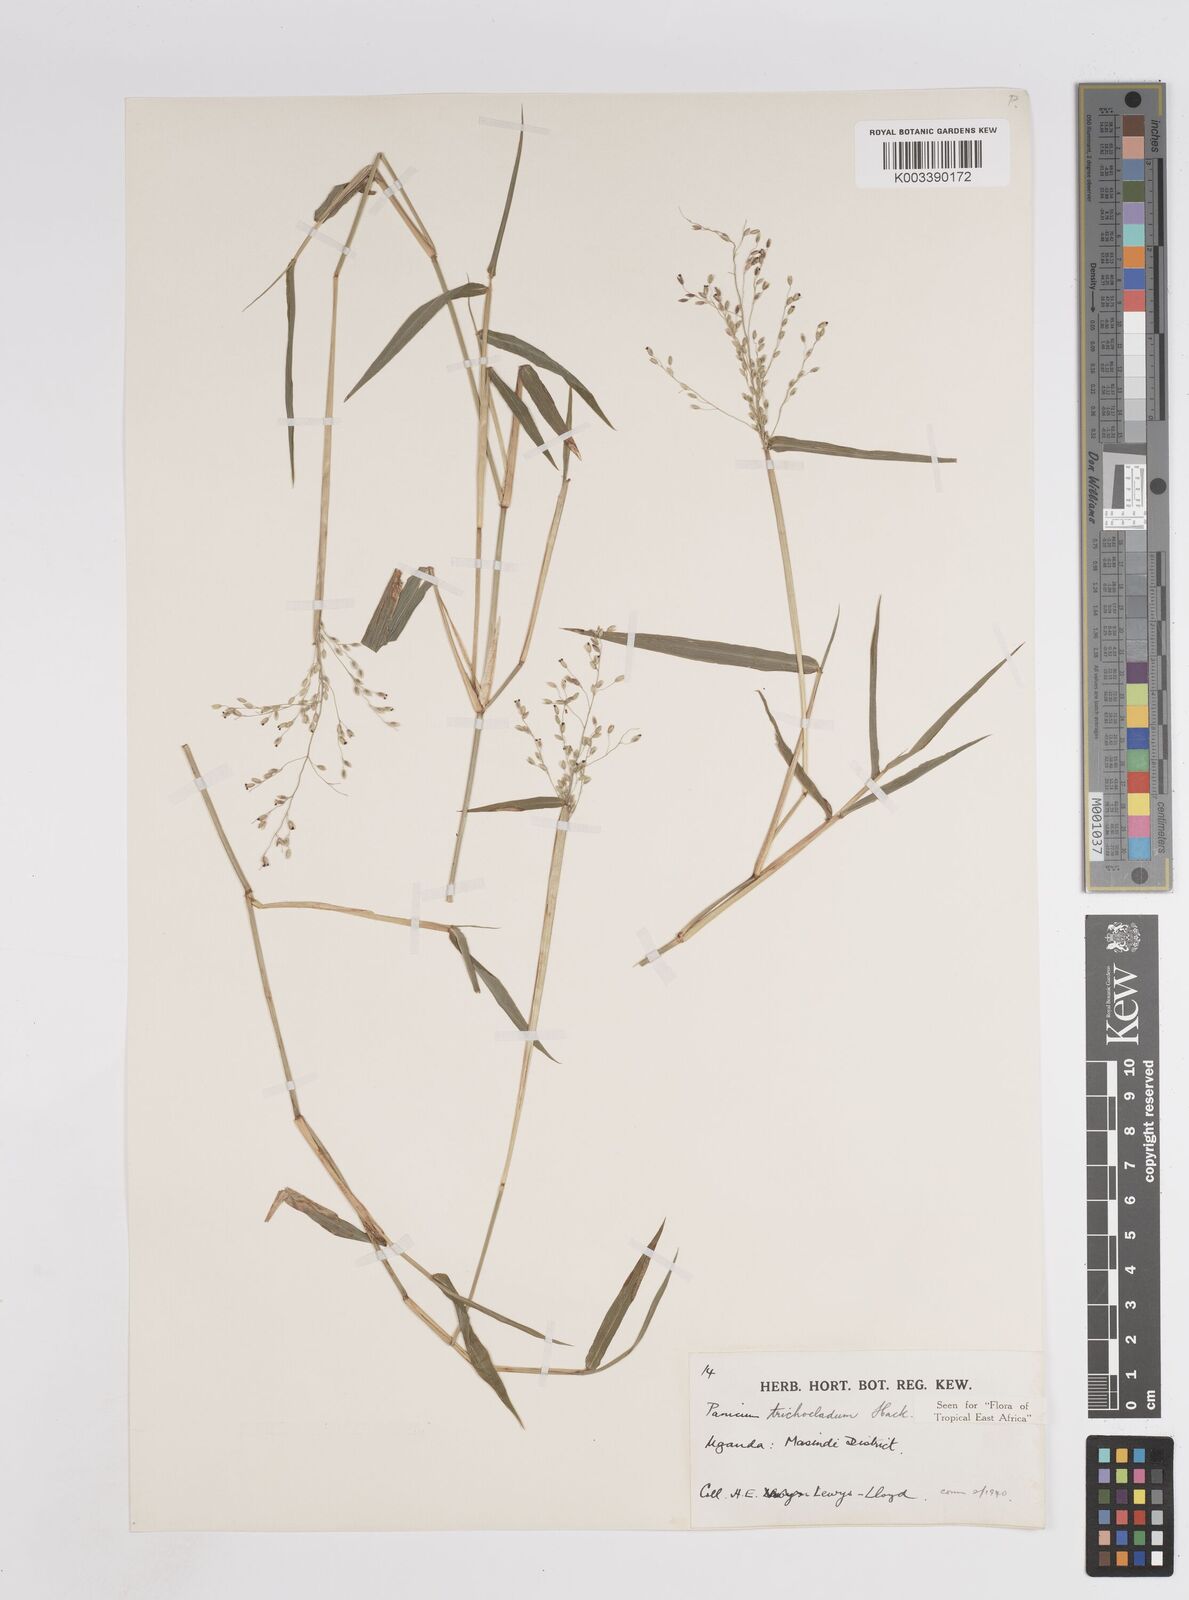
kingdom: Plantae
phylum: Tracheophyta
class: Liliopsida
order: Poales
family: Poaceae
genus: Panicum
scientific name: Panicum trichocladum
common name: Donkey grass
